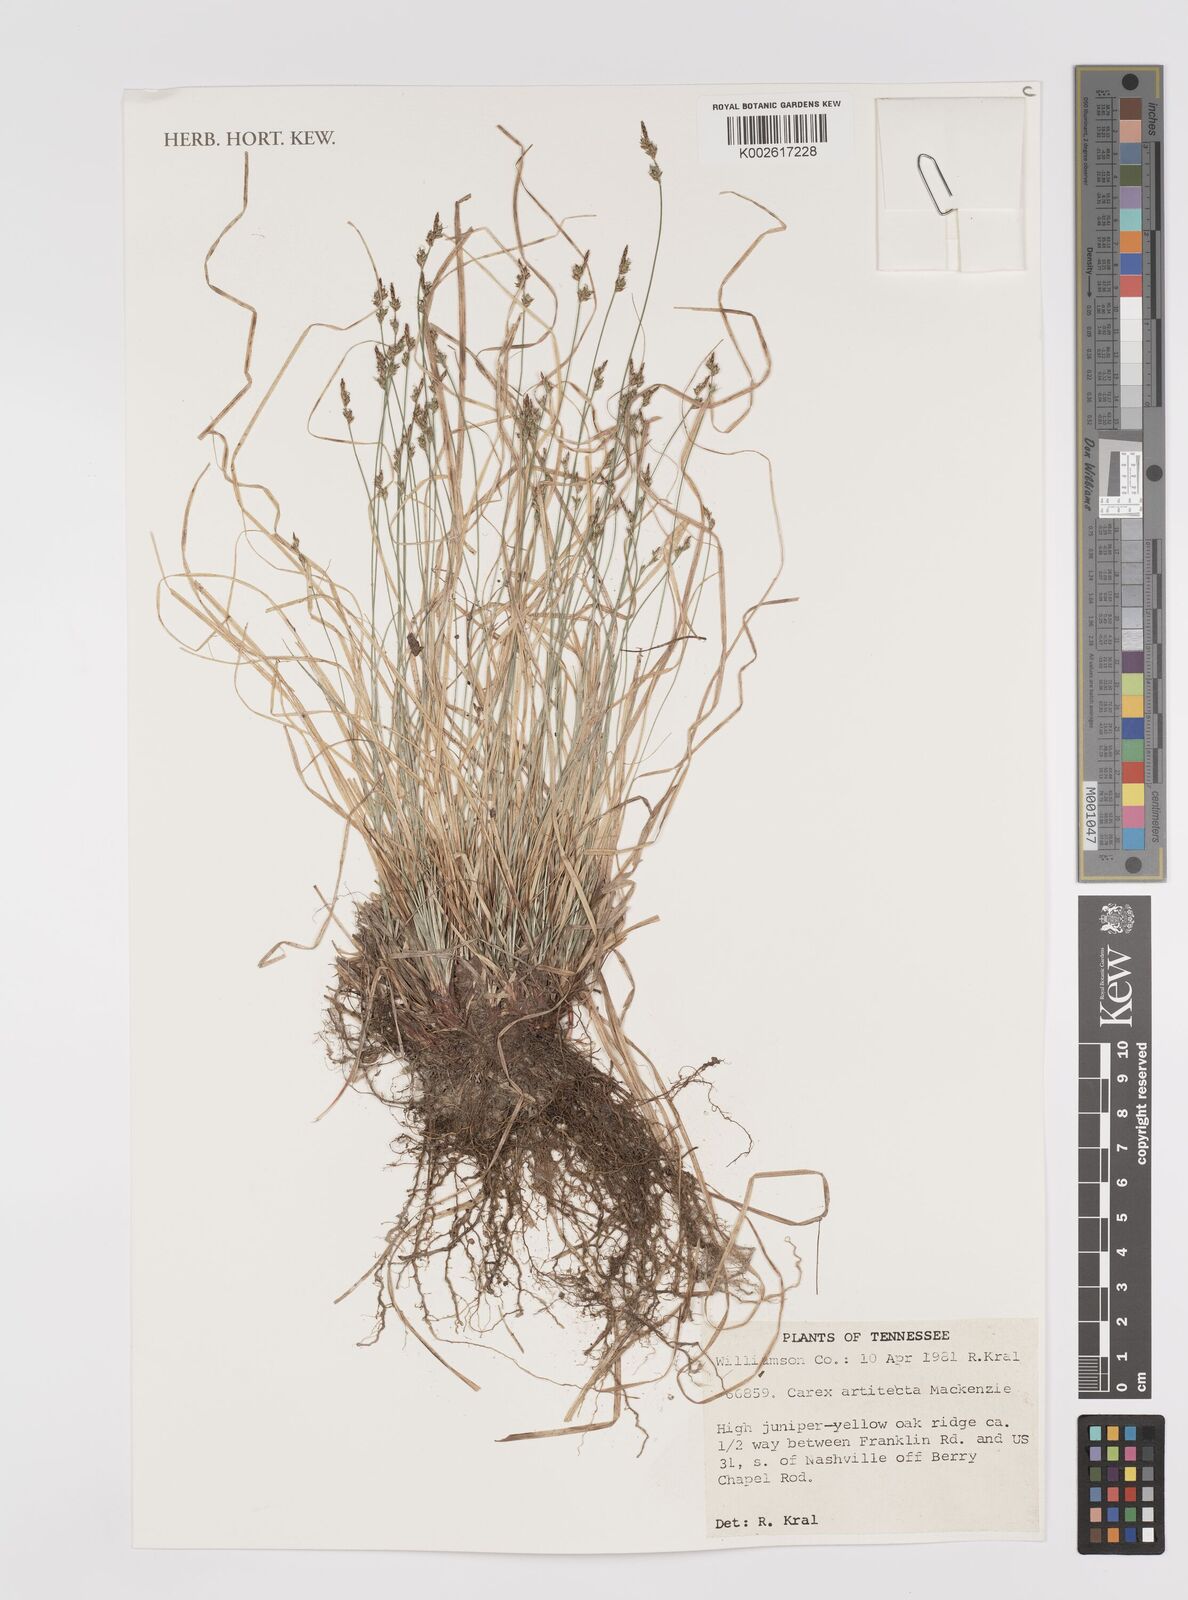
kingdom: Plantae
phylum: Tracheophyta
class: Liliopsida
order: Poales
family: Cyperaceae
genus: Carex
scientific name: Carex albicans
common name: Bellow-beaked sedge
